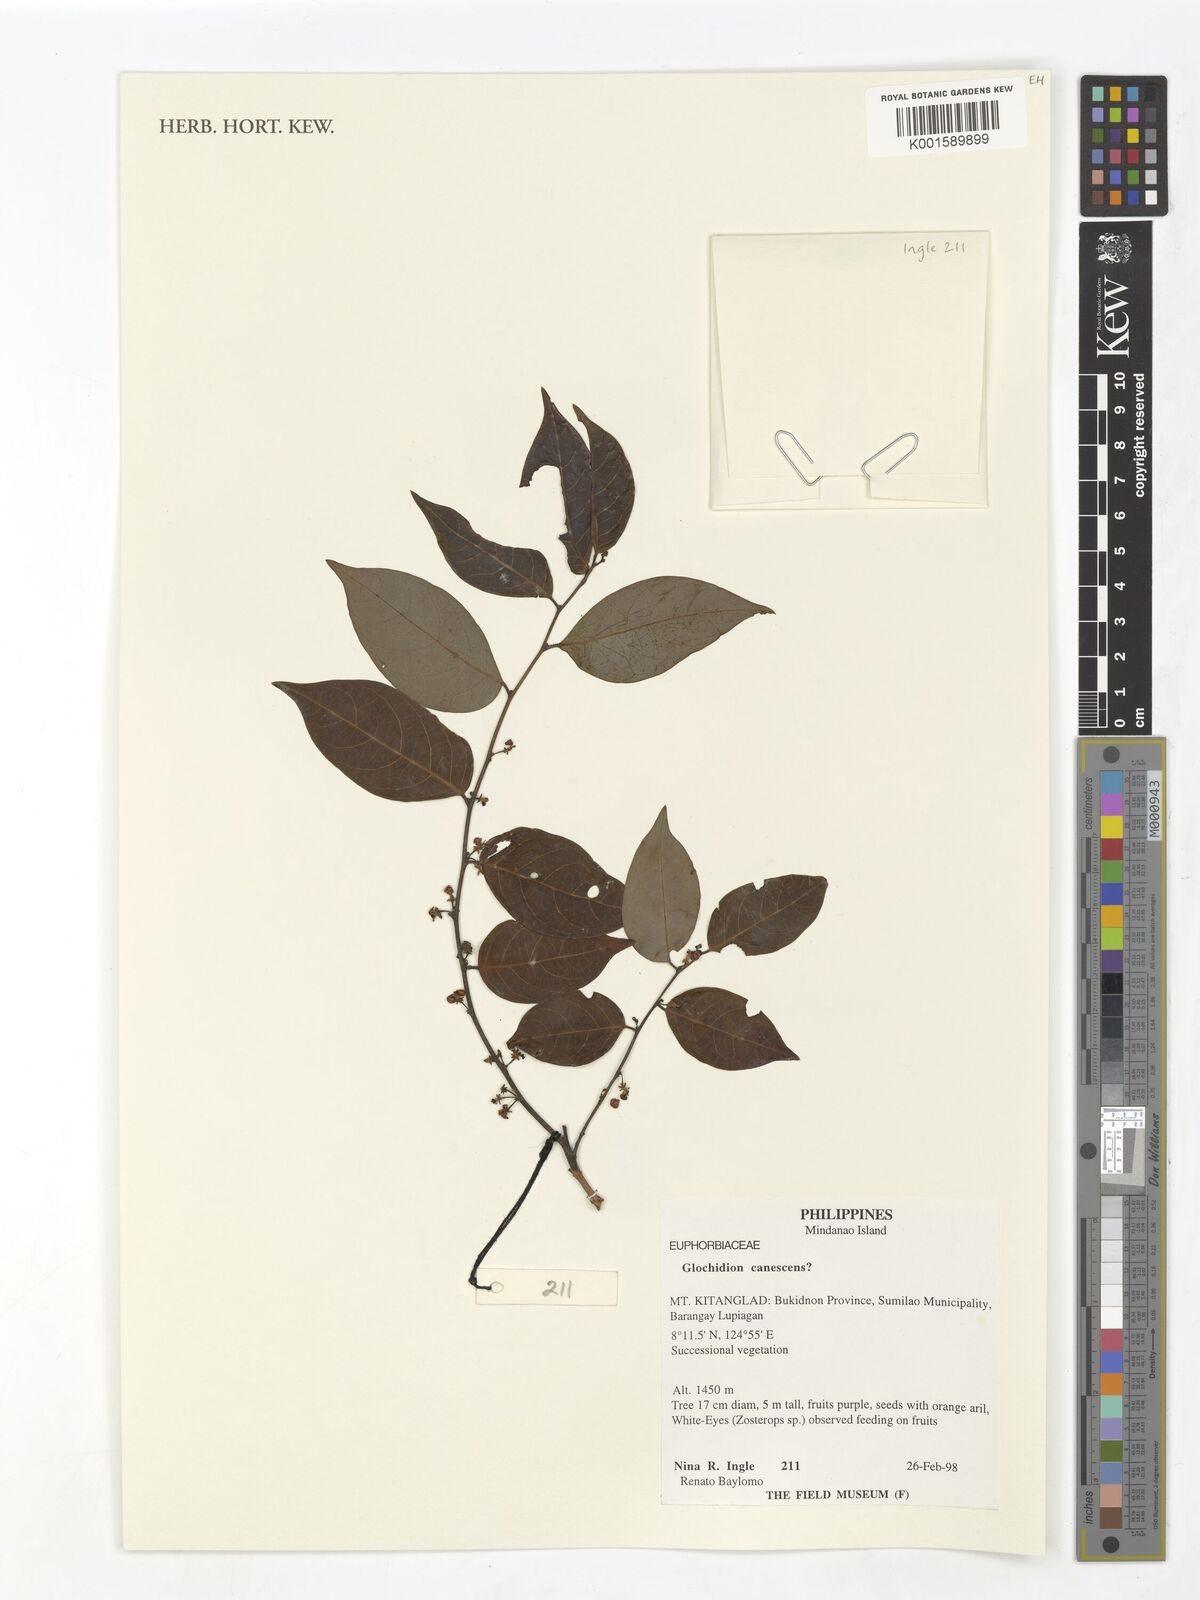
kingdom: Plantae
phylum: Tracheophyta
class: Magnoliopsida
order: Malpighiales
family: Phyllanthaceae
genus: Glochidion
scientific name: Glochidion canescens
